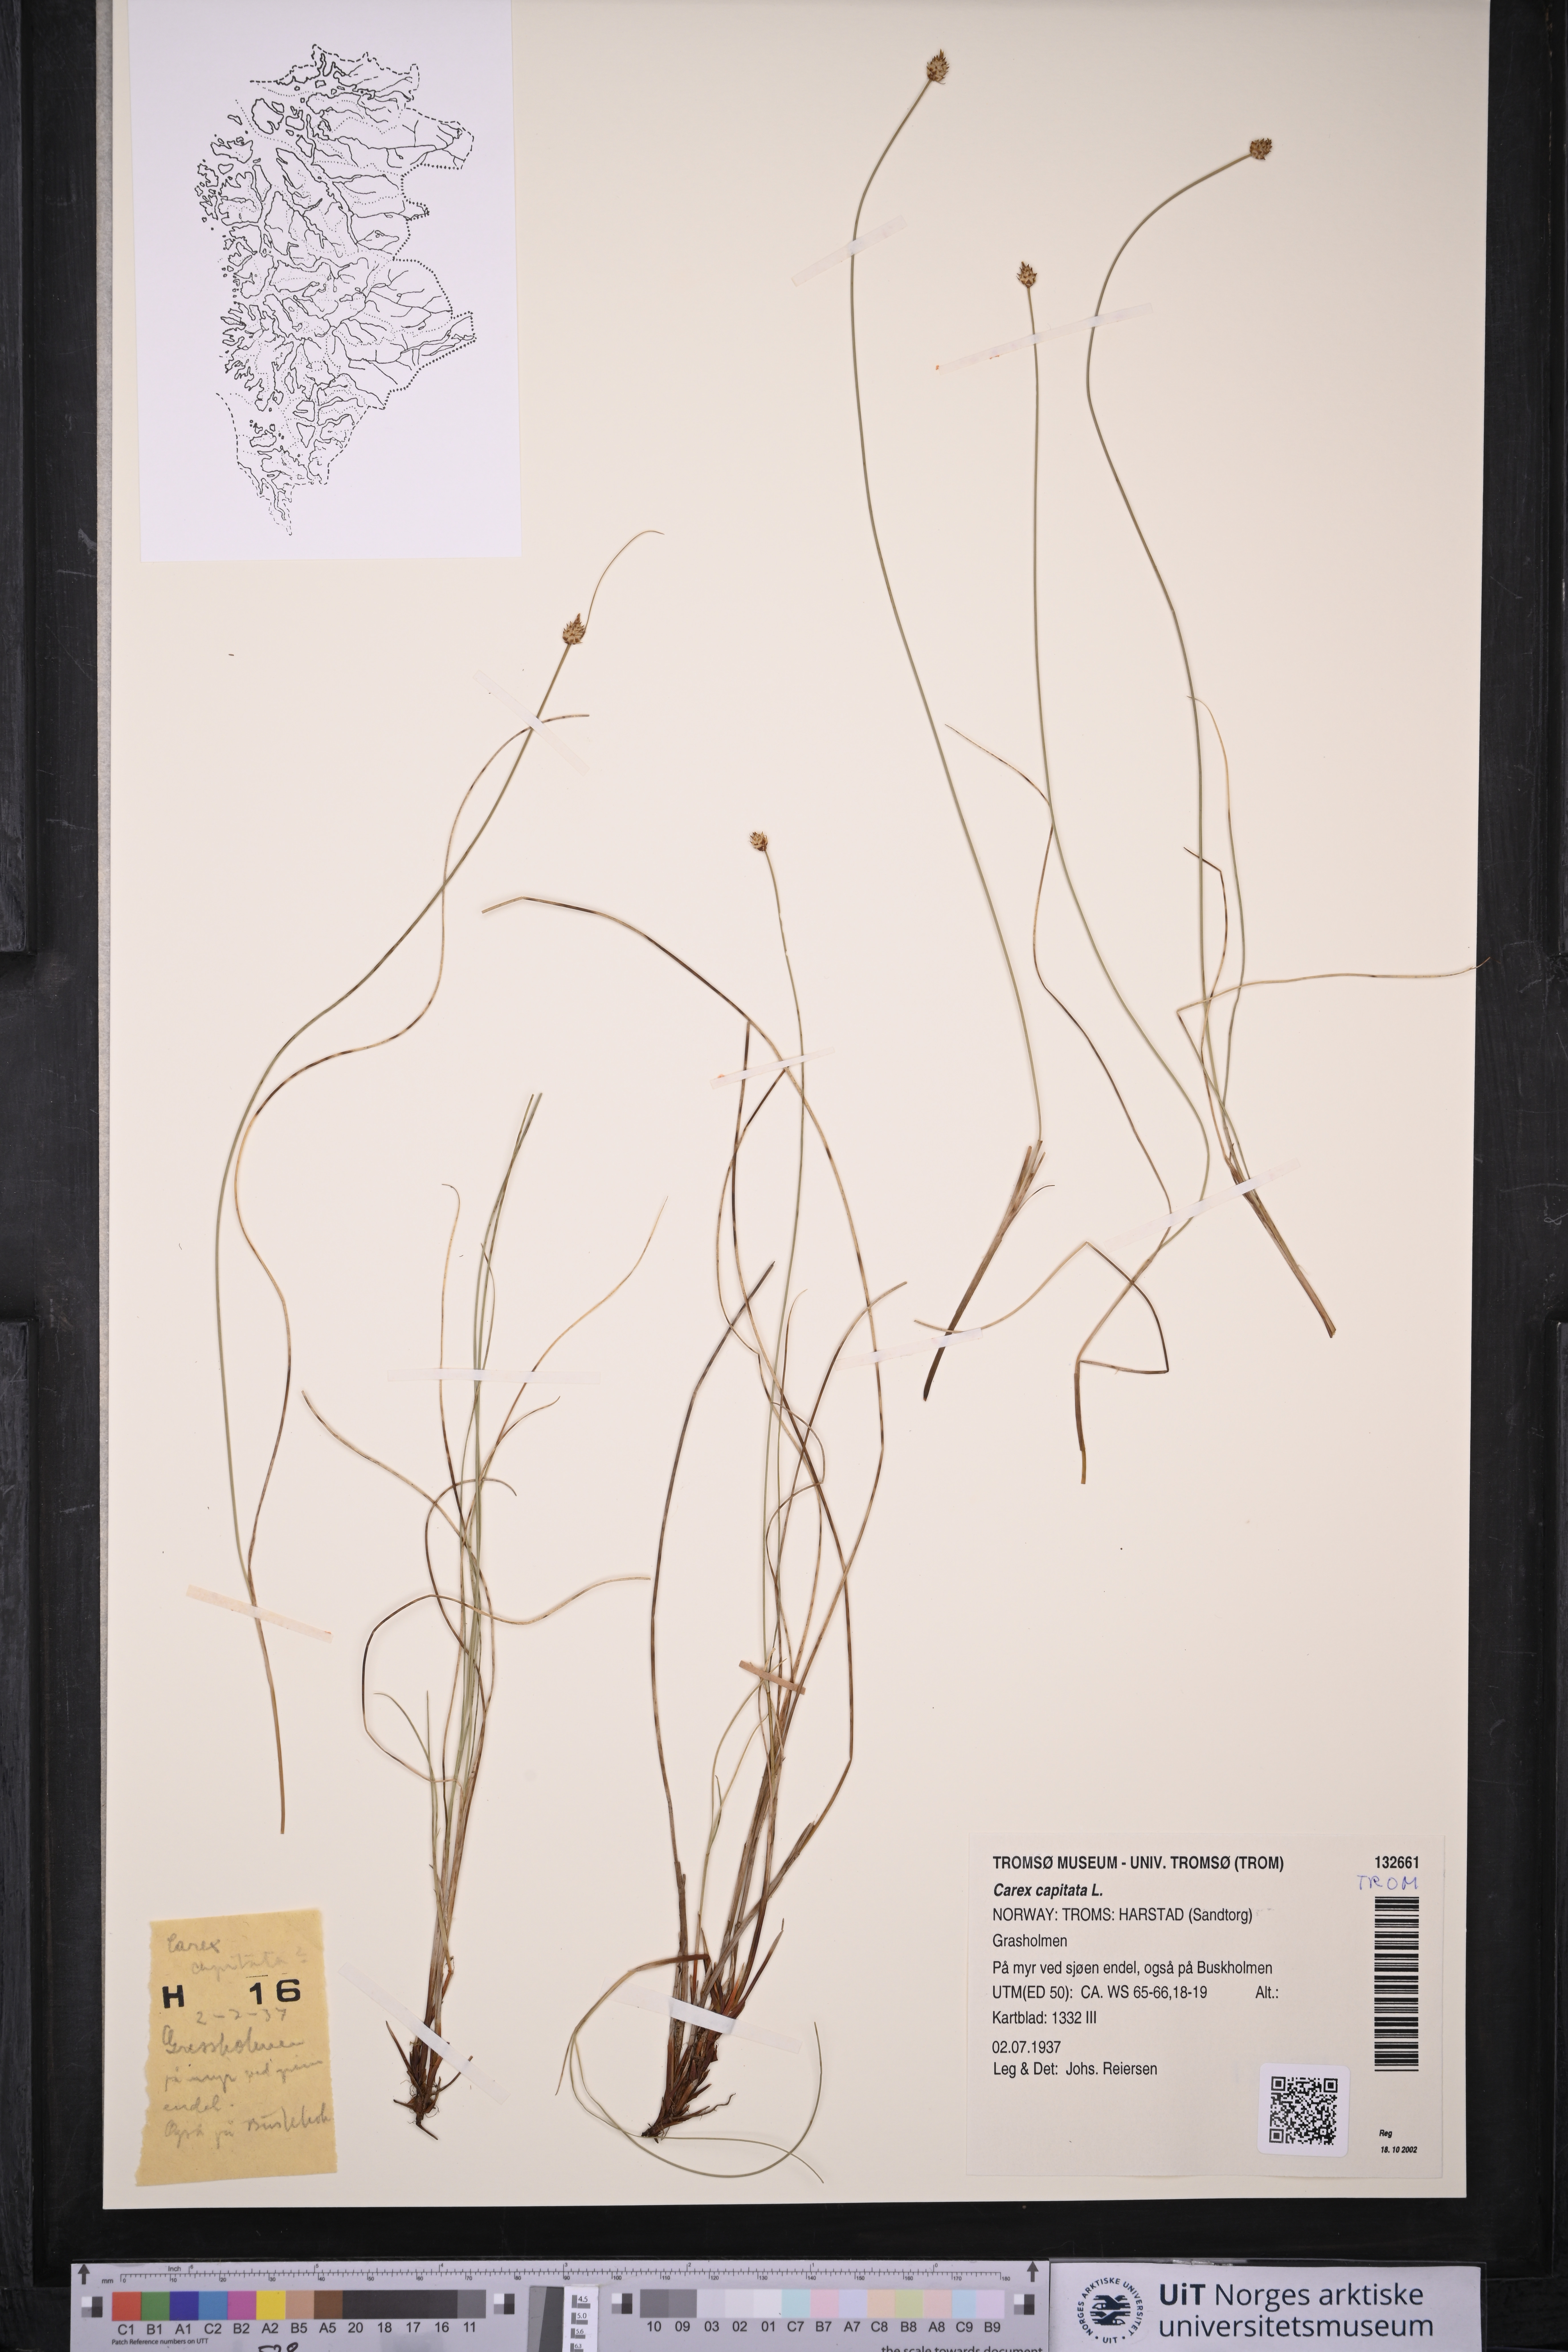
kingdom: Plantae
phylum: Tracheophyta
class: Liliopsida
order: Poales
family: Cyperaceae
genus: Carex
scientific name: Carex capitata
